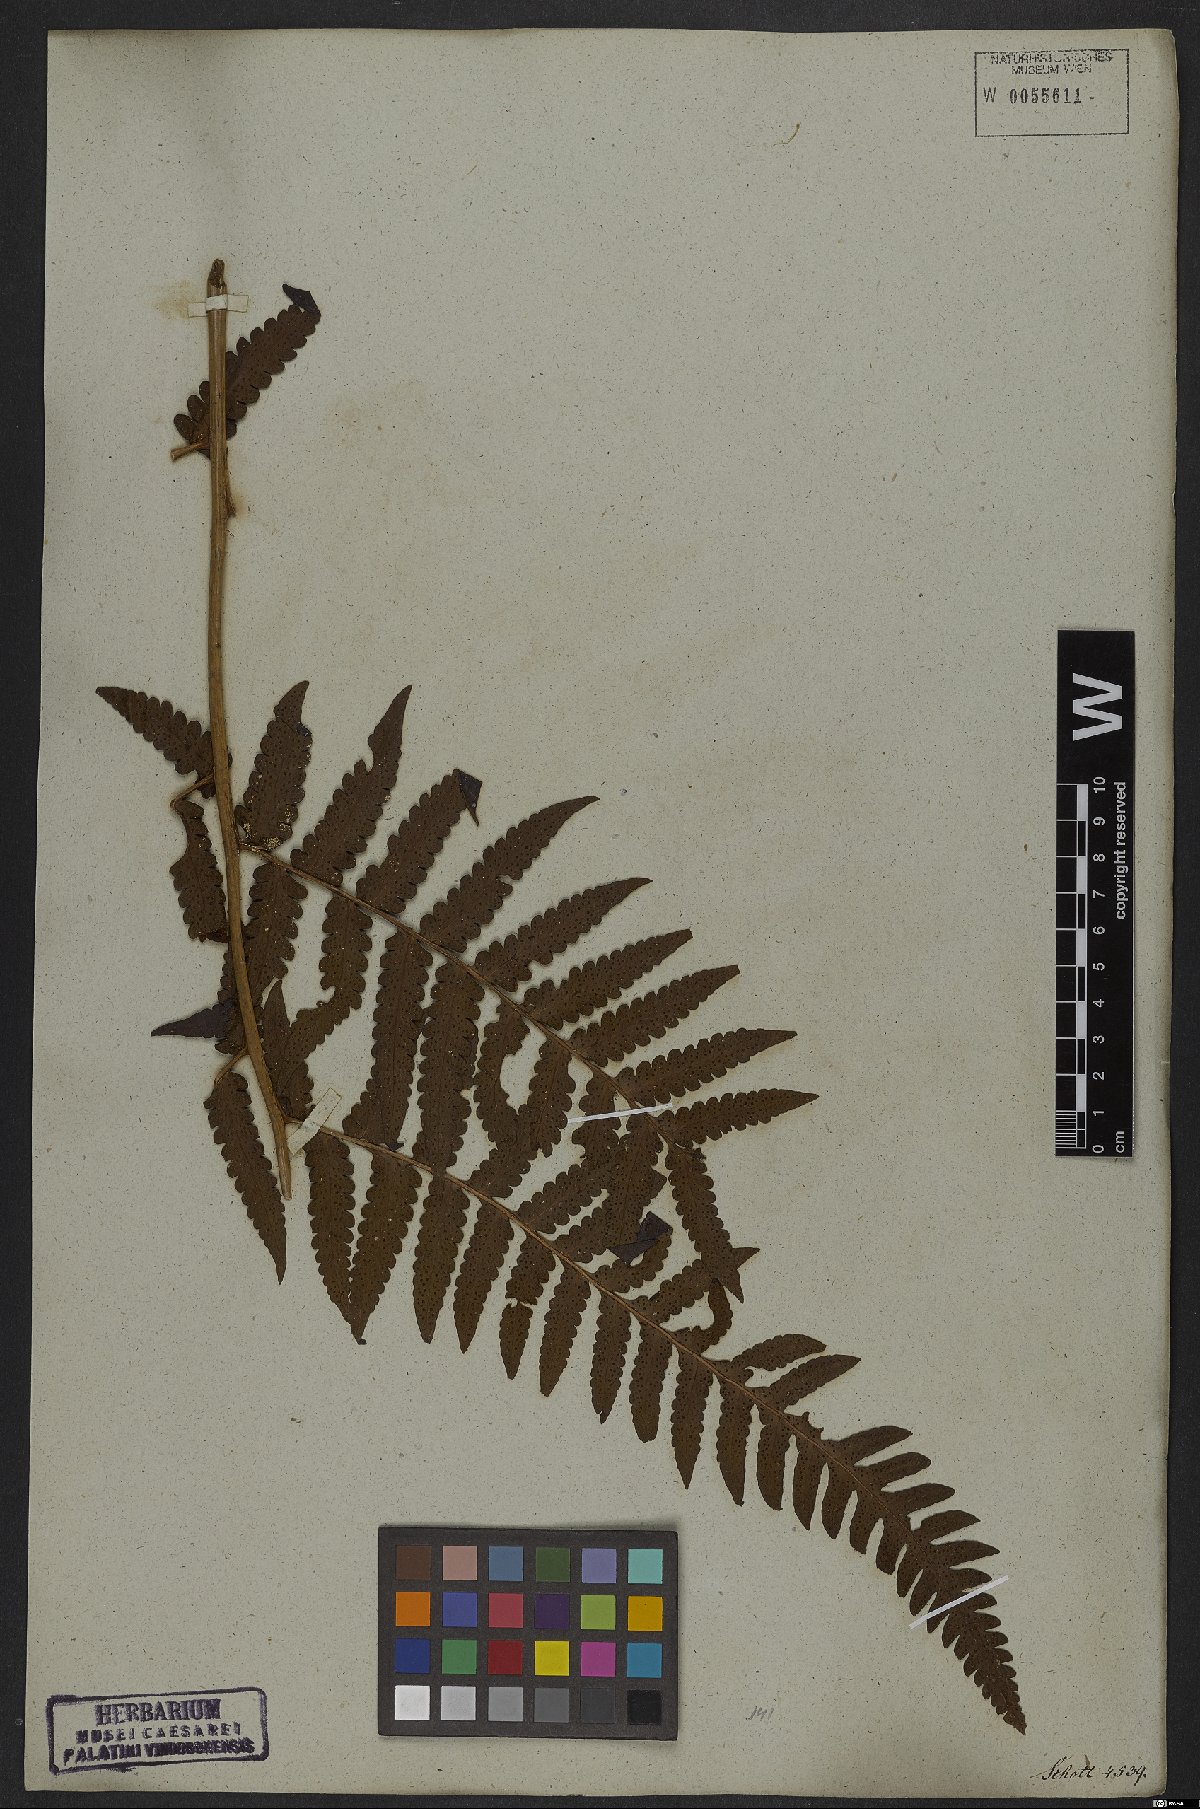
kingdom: Plantae
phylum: Tracheophyta
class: Polypodiopsida
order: Polypodiales
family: Dryopteridaceae
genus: Megalastrum
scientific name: Megalastrum connexum
